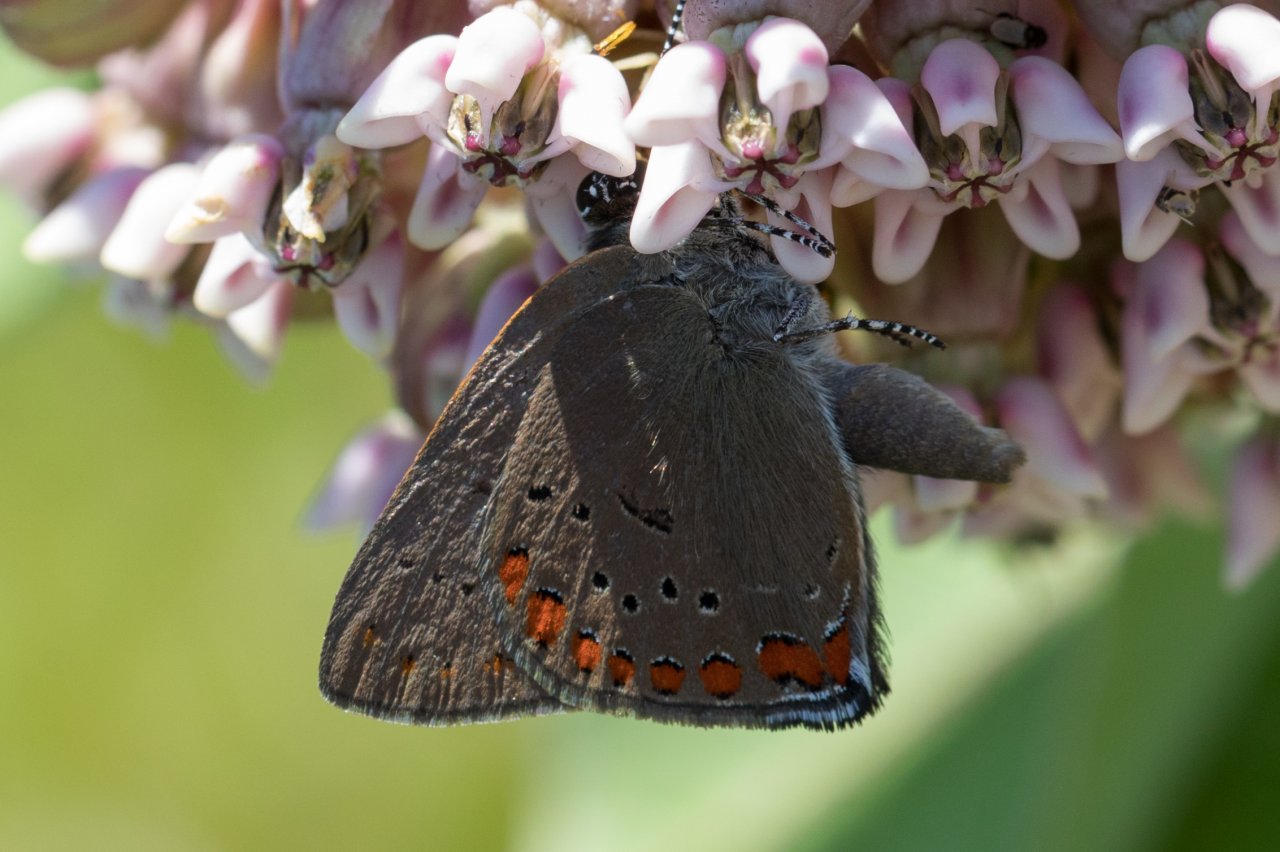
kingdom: Animalia
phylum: Arthropoda
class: Insecta
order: Lepidoptera
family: Lycaenidae
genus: Harkenclenus
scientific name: Harkenclenus titus
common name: Coral Hairstreak
